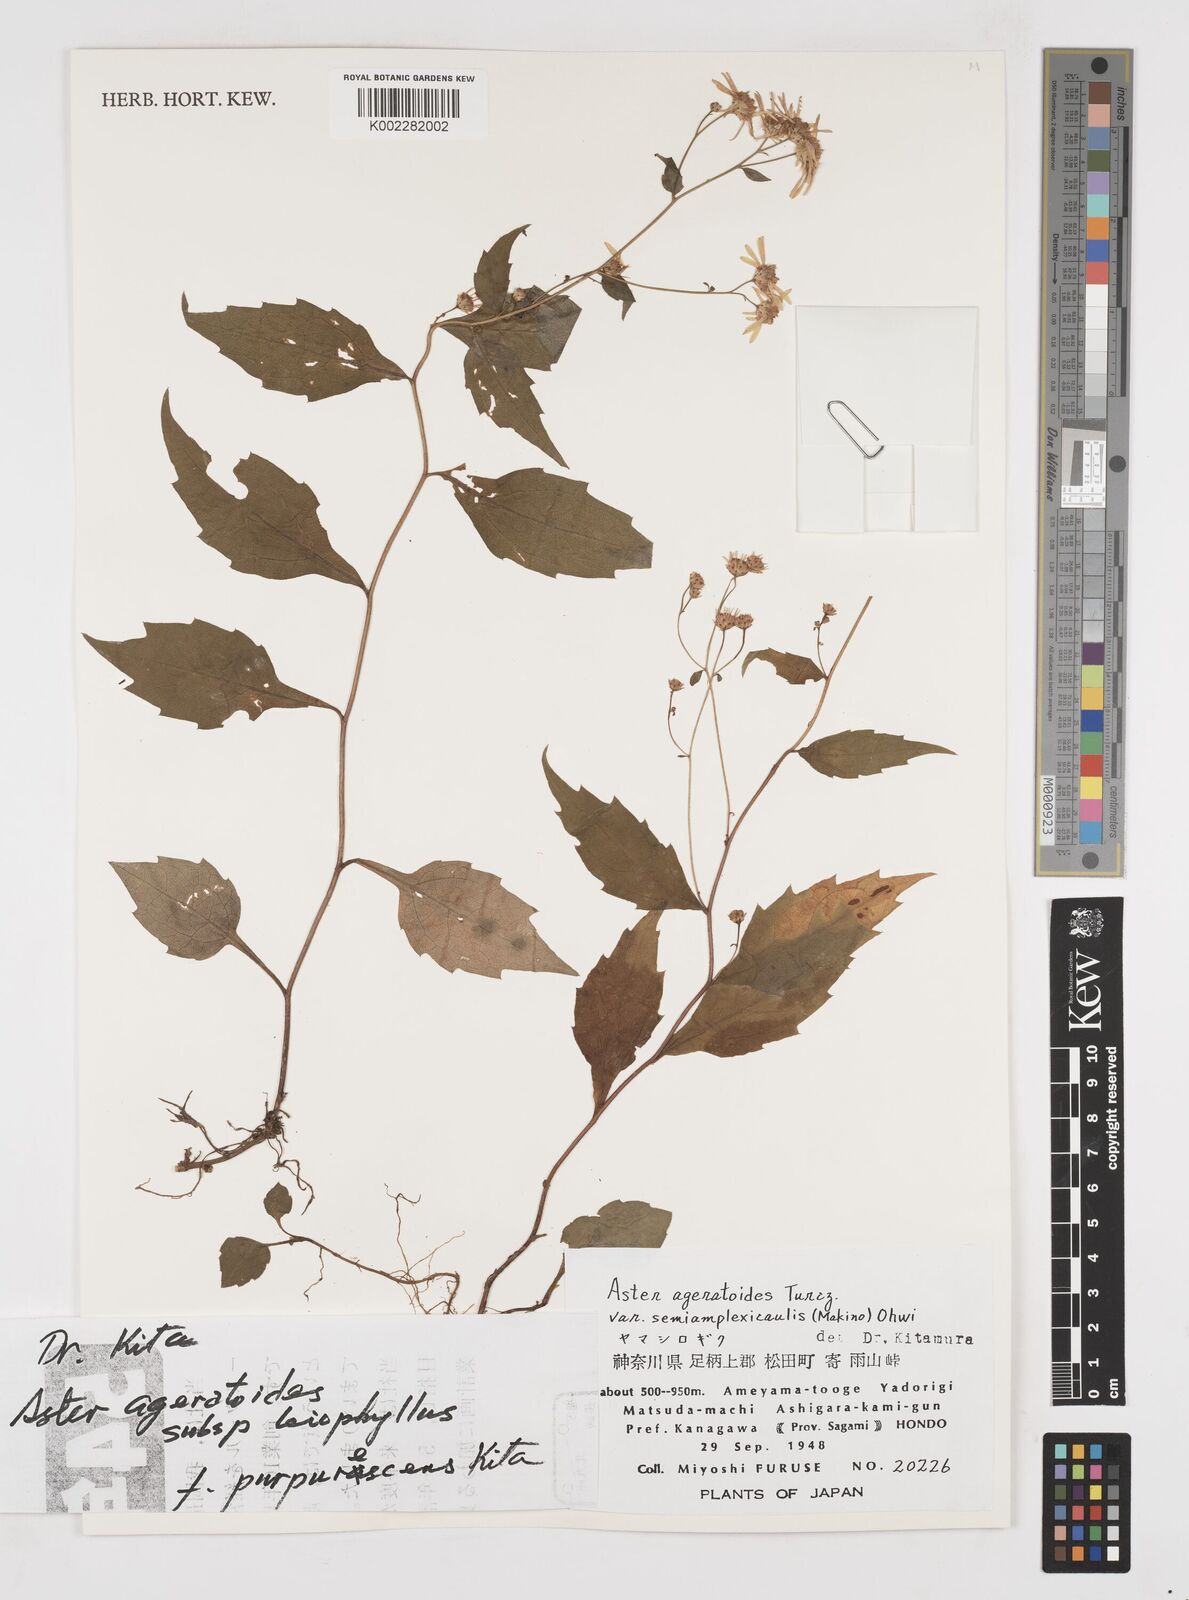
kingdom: Plantae
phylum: Tracheophyta
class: Magnoliopsida
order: Asterales
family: Asteraceae
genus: Aster
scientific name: Aster trinervius
